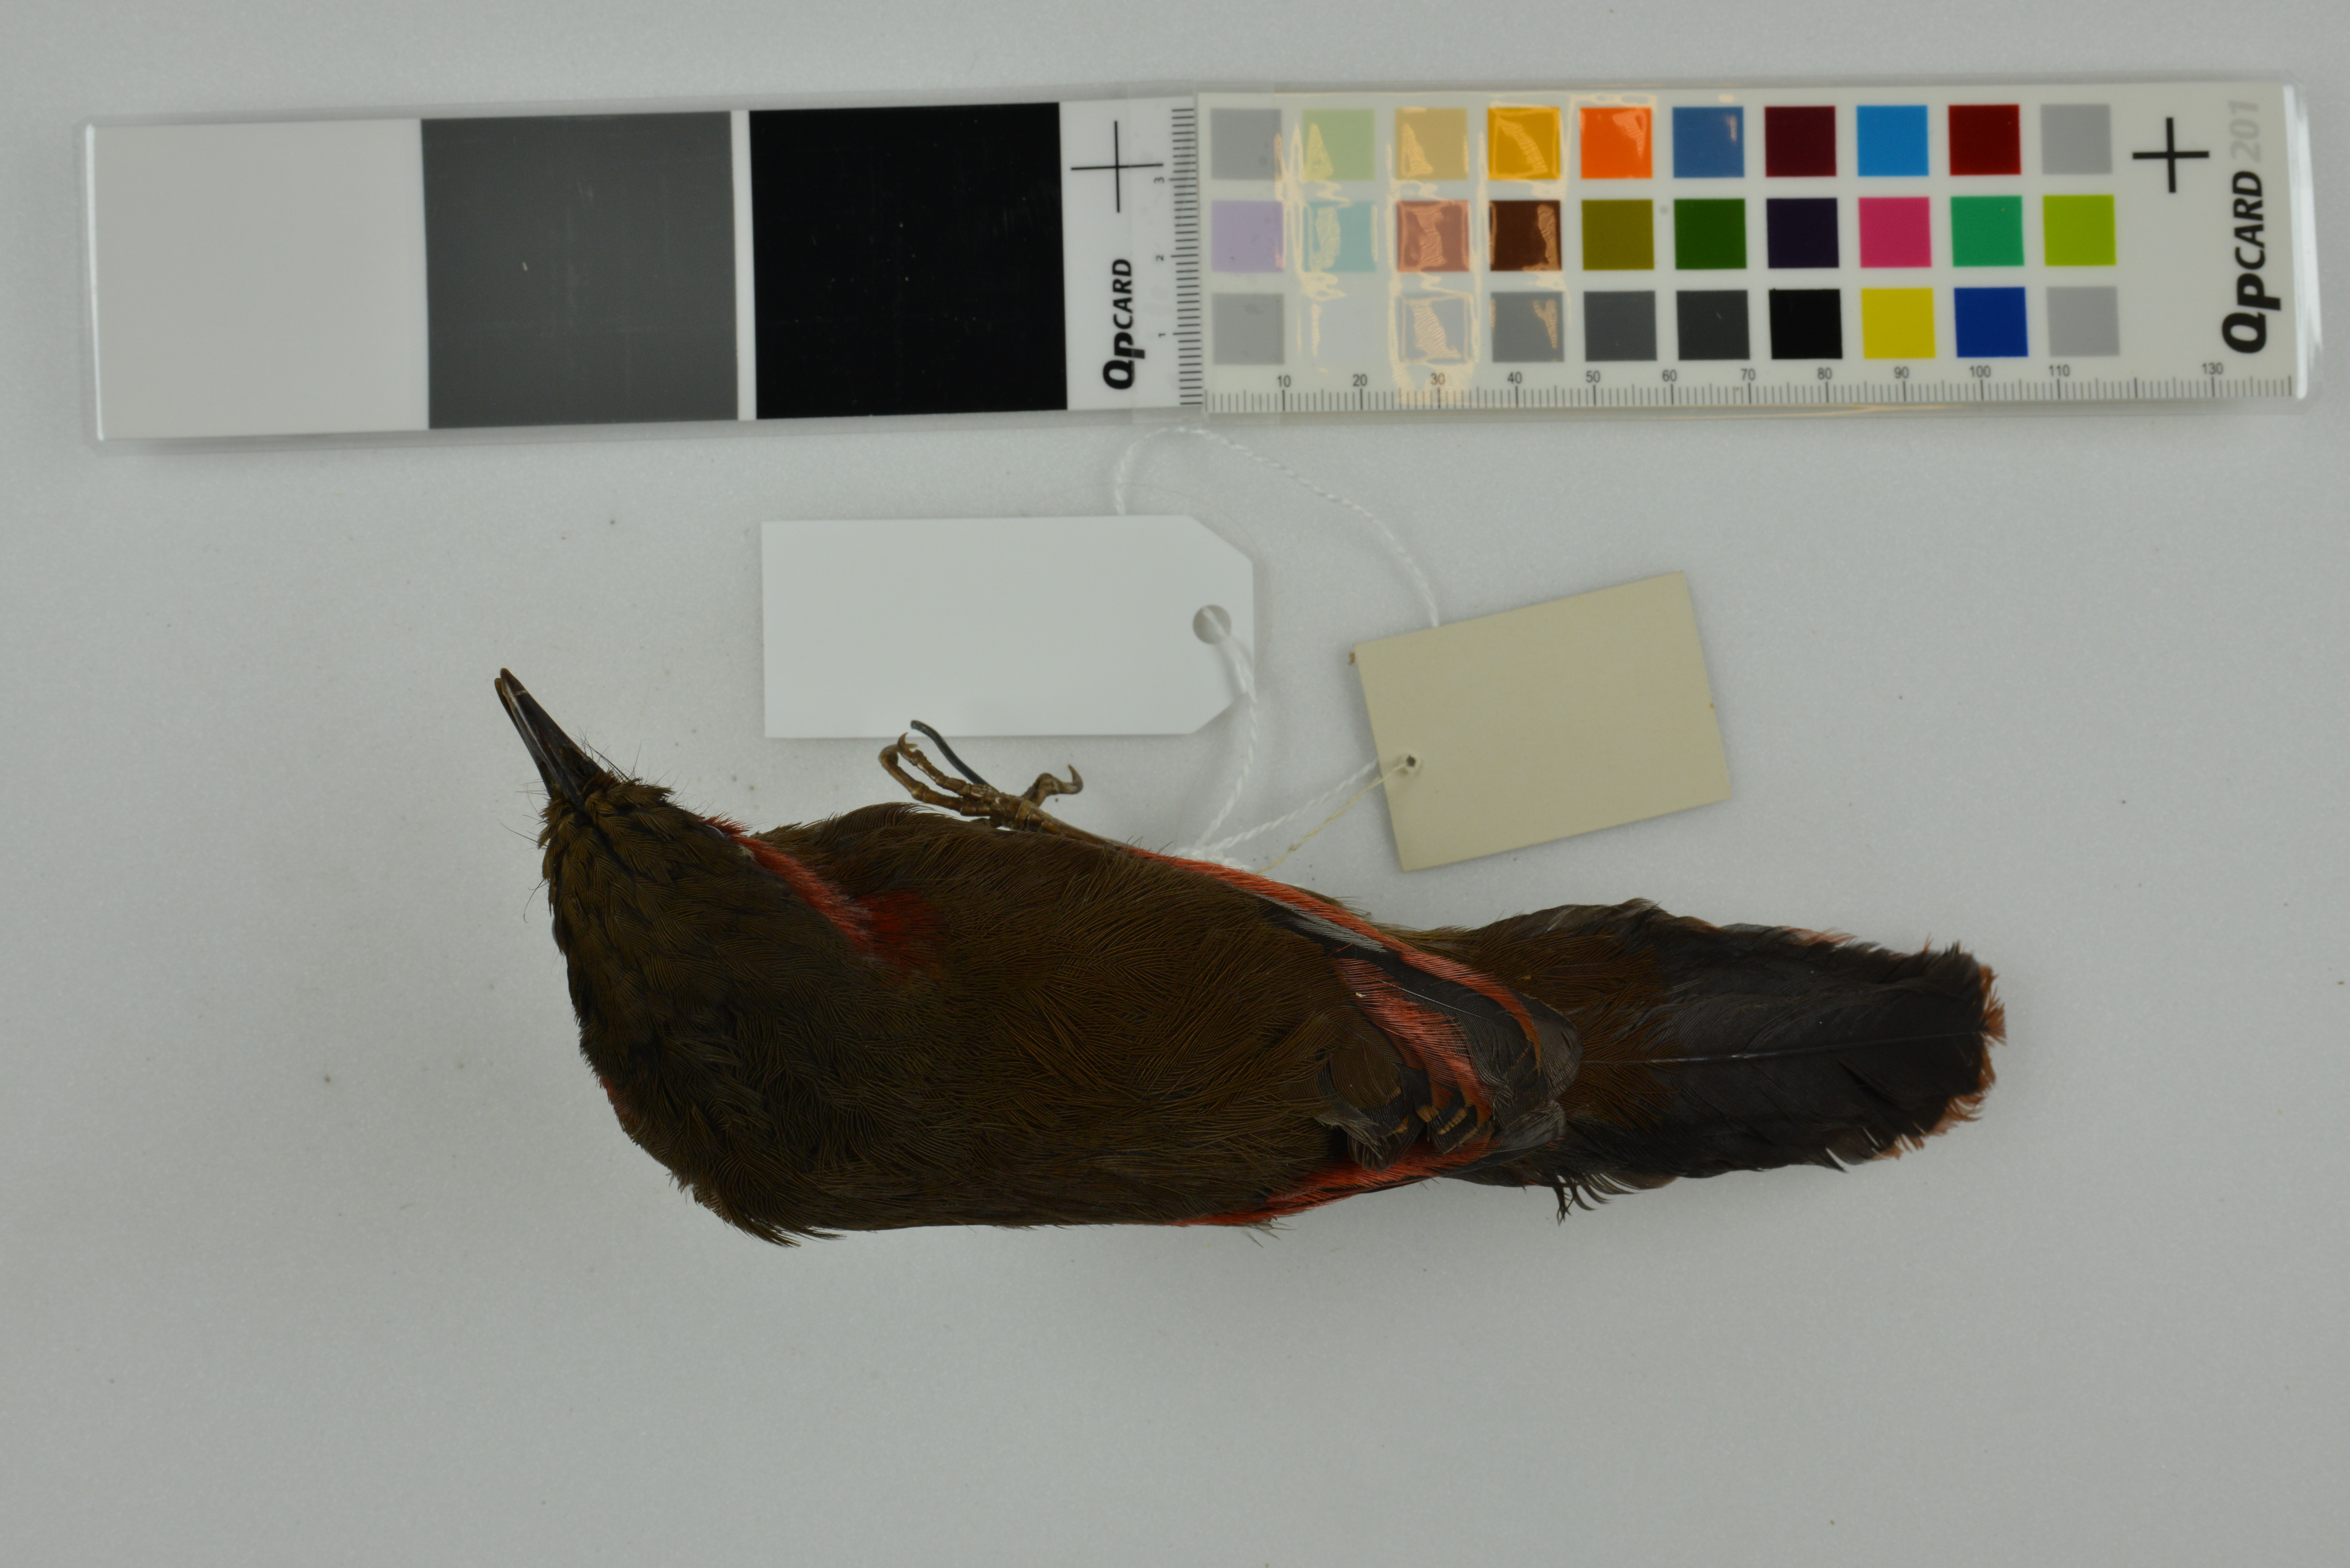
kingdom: Animalia
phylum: Chordata
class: Aves
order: Passeriformes
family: Leiothrichidae
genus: Liocichla
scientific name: Liocichla phoenicea
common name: Red-faced liocichla
